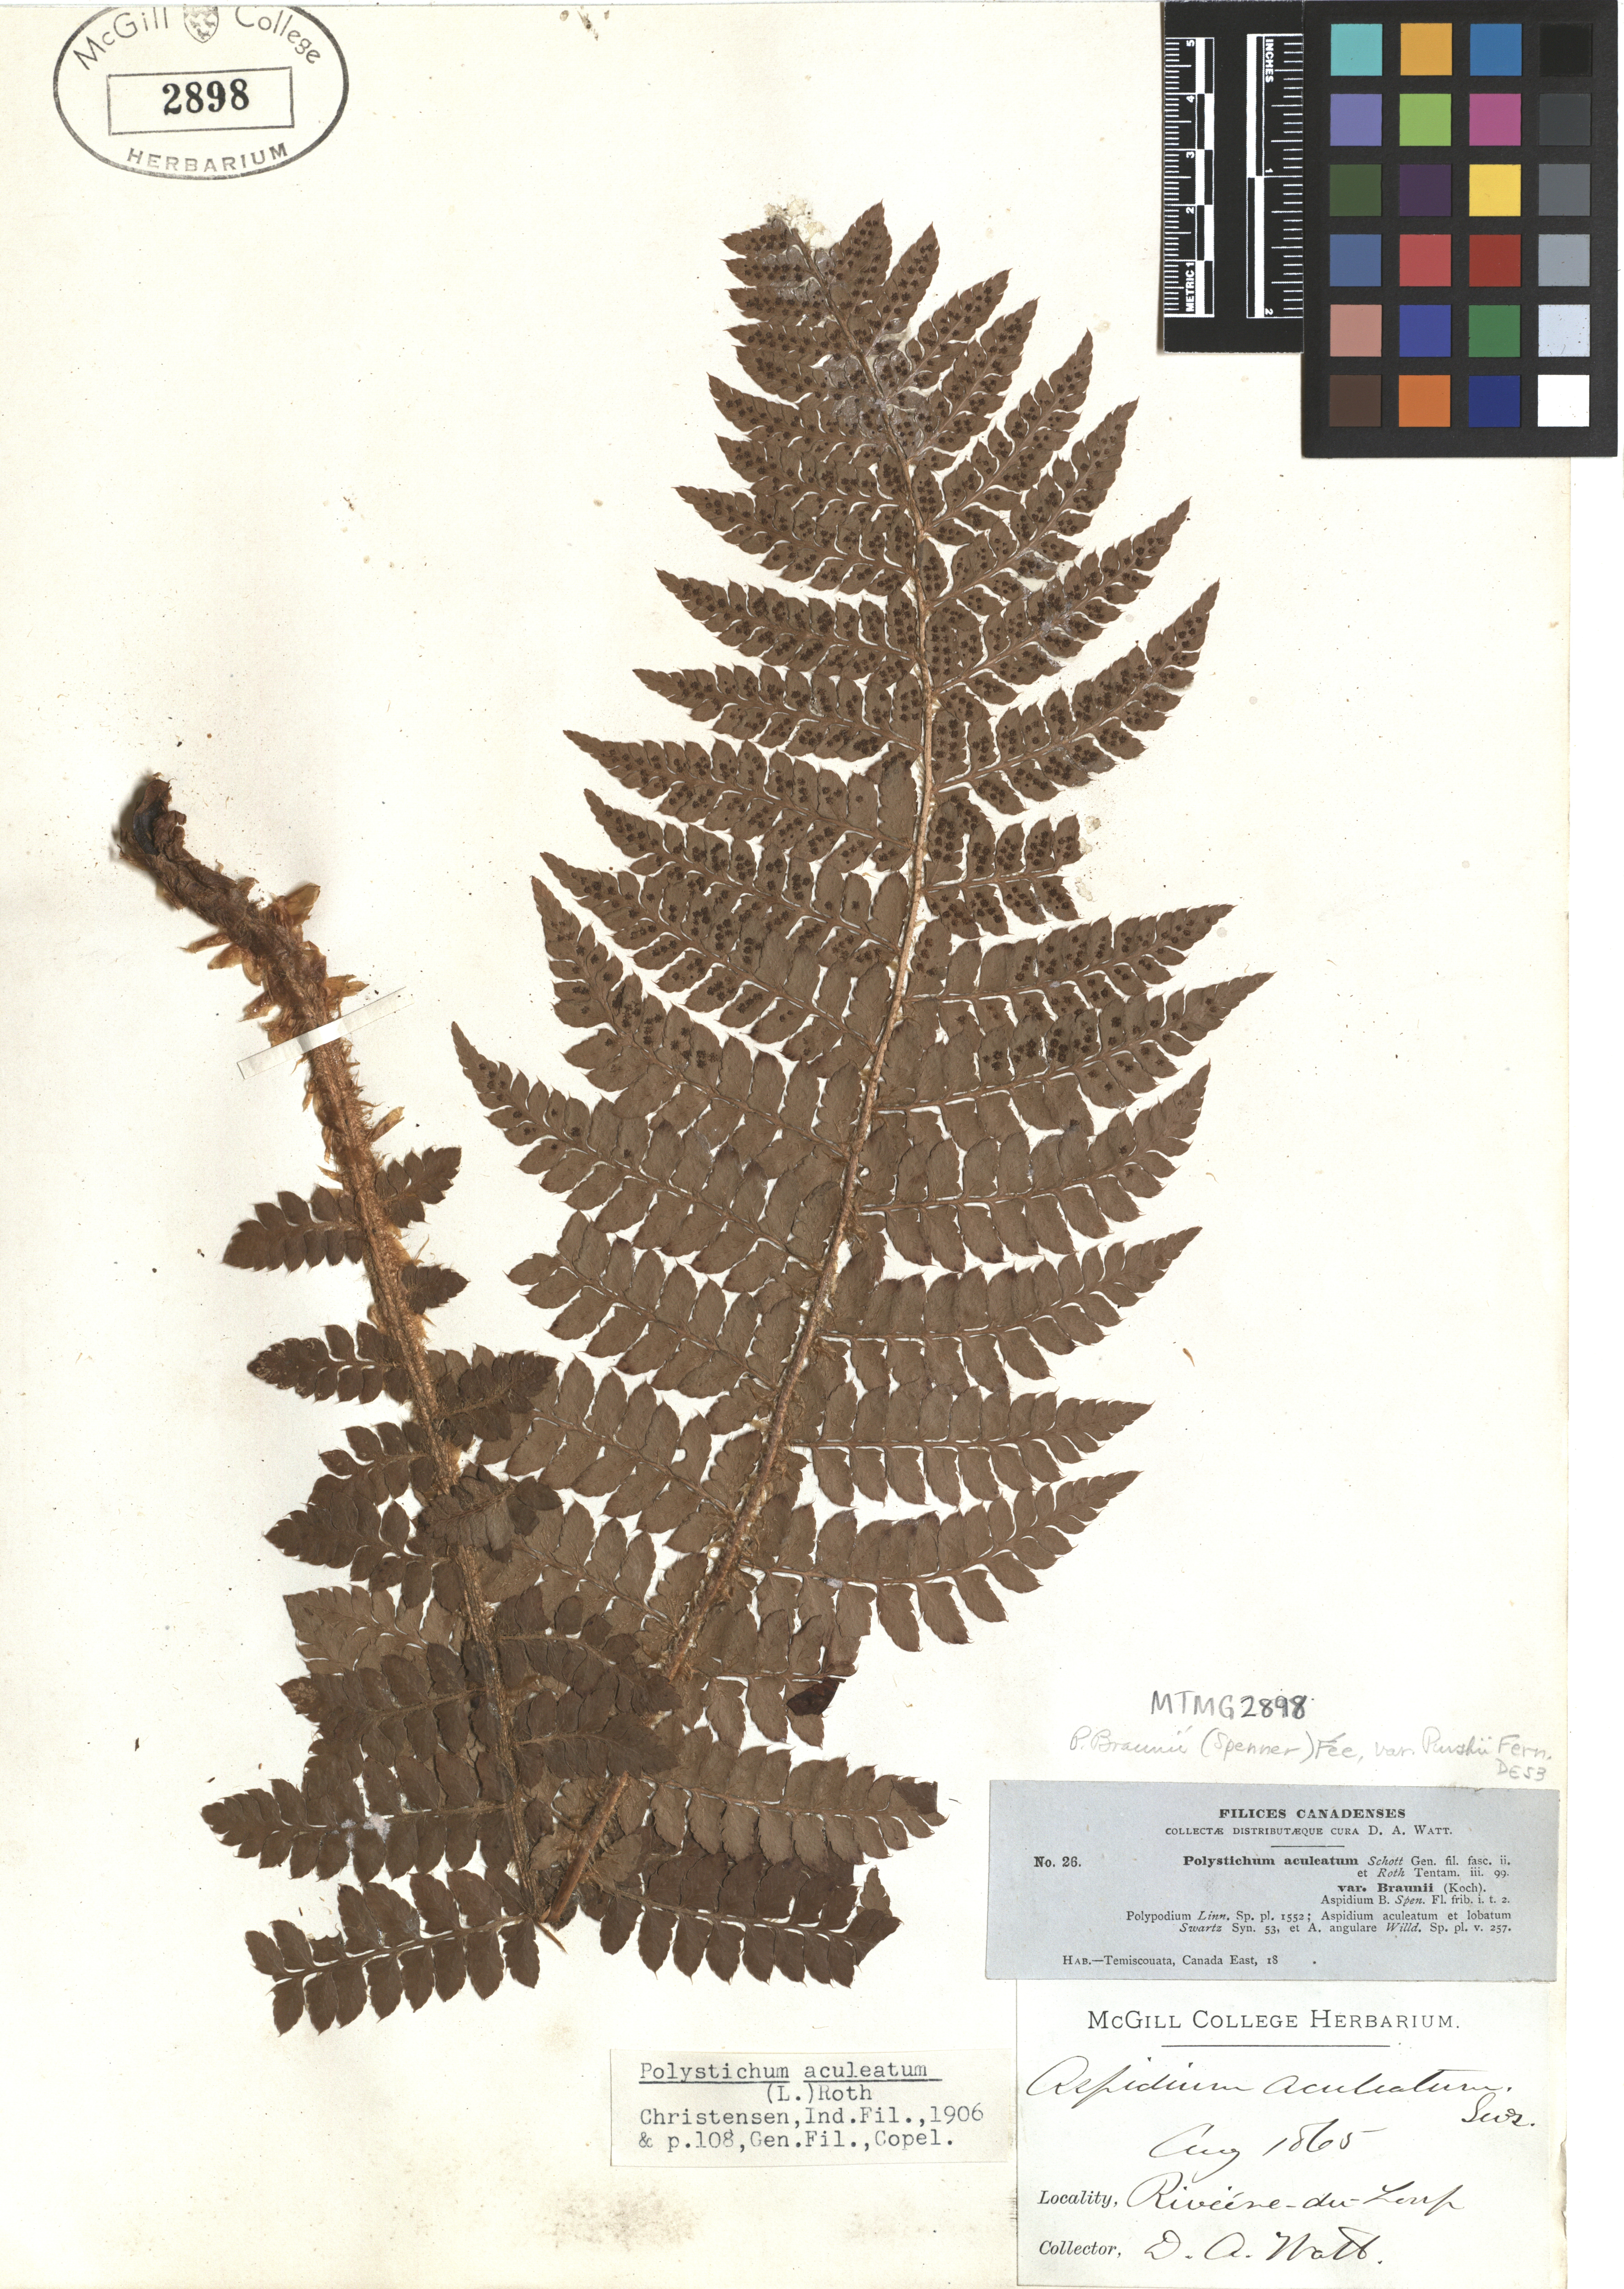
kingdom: Plantae
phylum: Tracheophyta
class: Polypodiopsida
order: Polypodiales
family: Dryopteridaceae
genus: Polystichum
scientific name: Polystichum aculeatum
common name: Hard shield-fern
